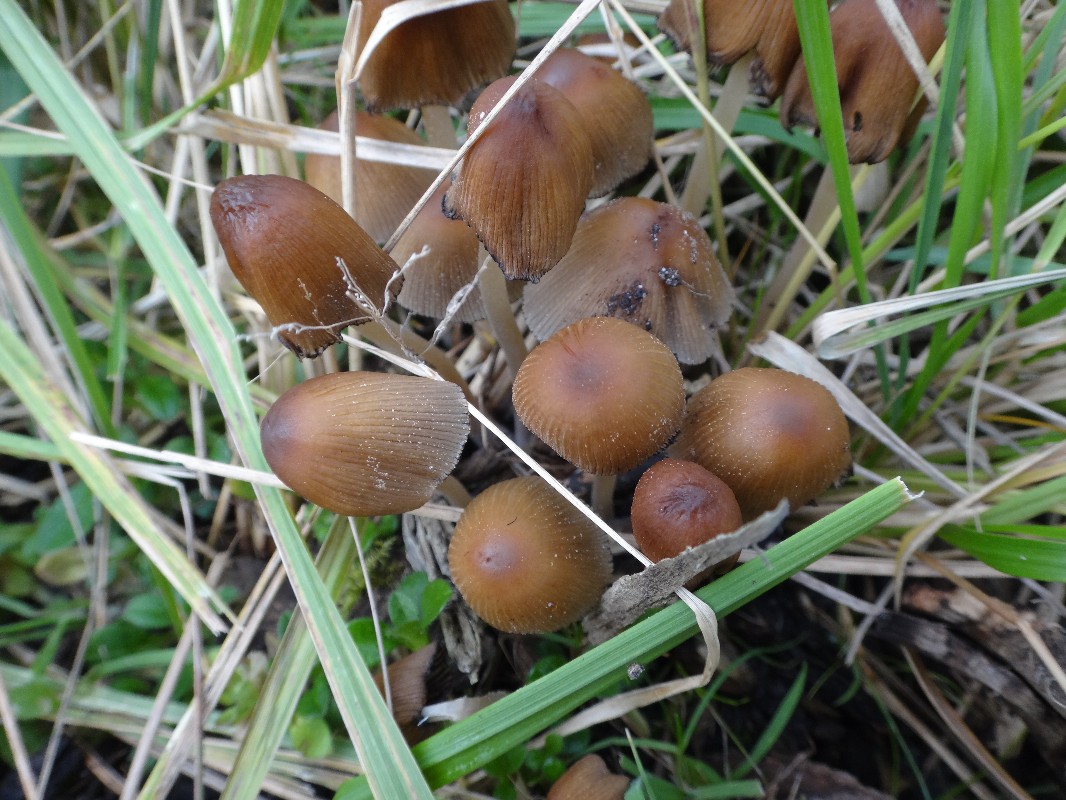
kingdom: Fungi
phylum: Basidiomycota
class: Agaricomycetes
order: Agaricales
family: Psathyrellaceae
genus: Coprinellus
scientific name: Coprinellus micaceus
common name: glimmer-blækhat
